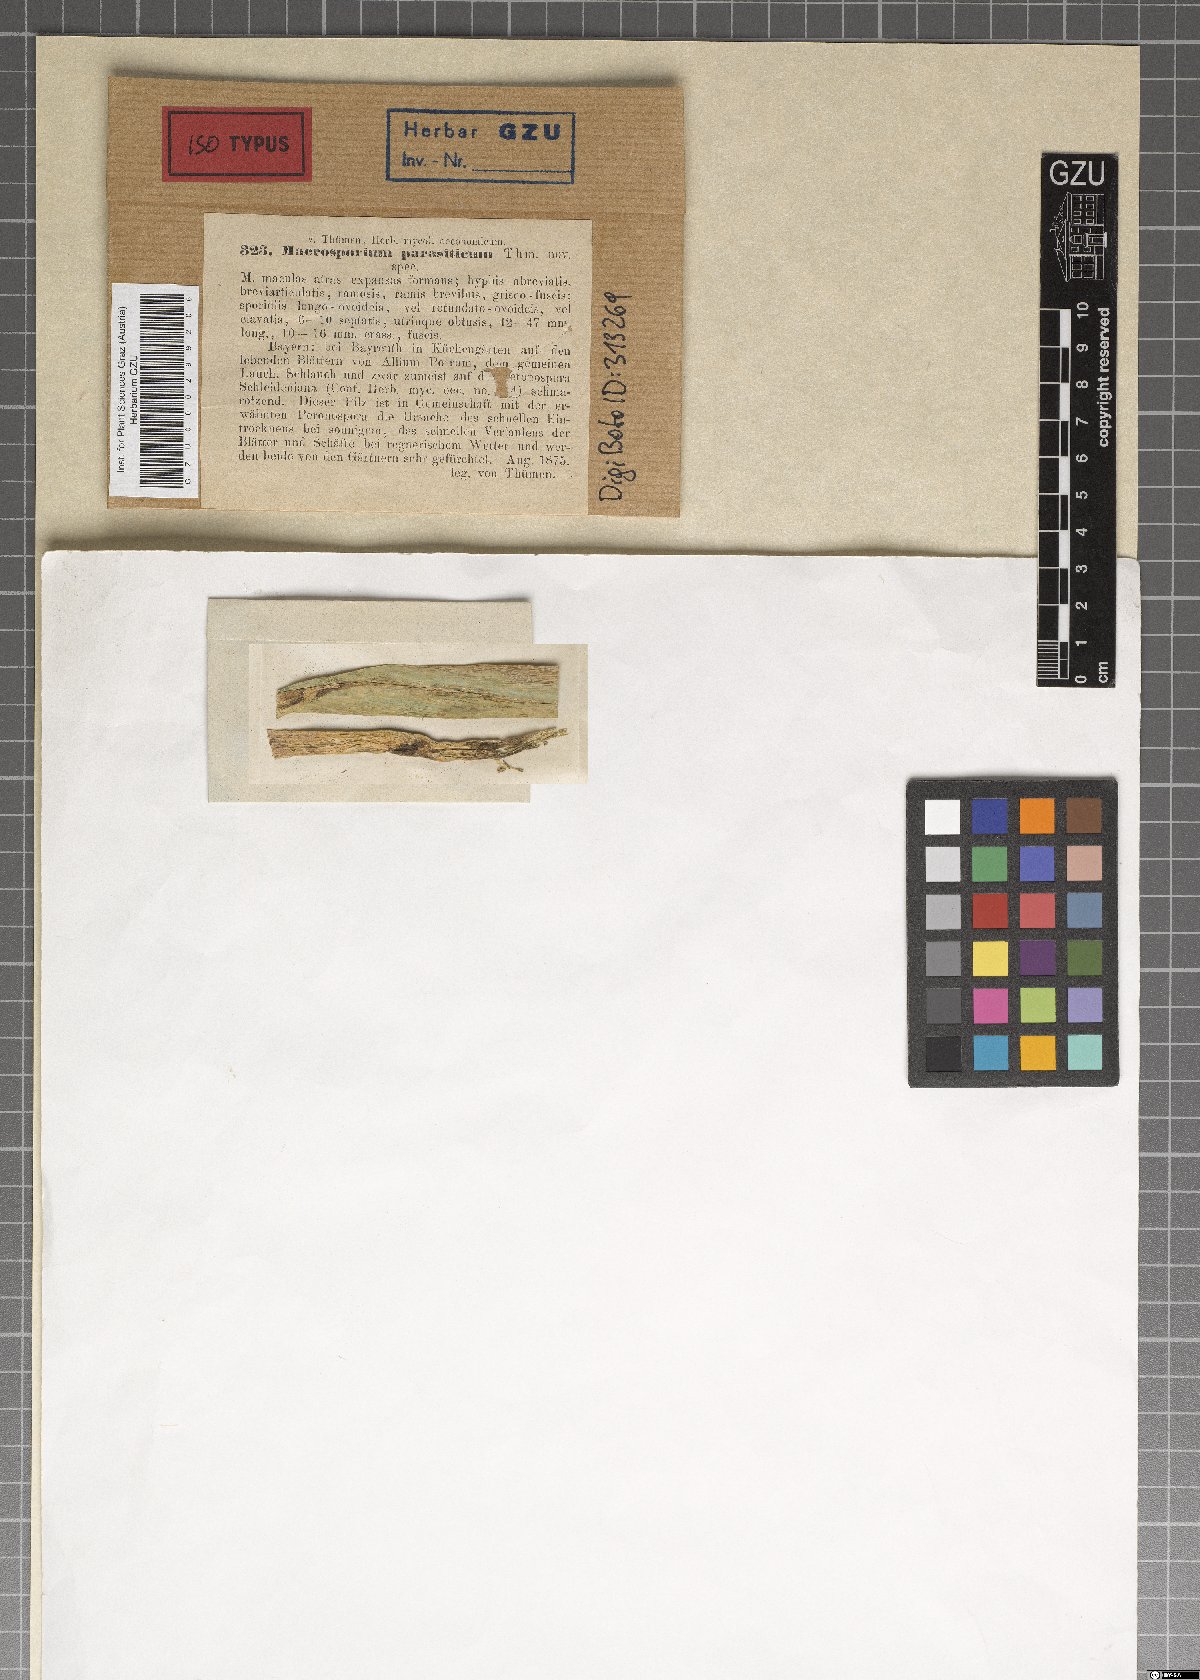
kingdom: Fungi
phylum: Ascomycota
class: Dothideomycetes
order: Pleosporales
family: Pleosporaceae
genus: Stemphylium
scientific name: Stemphylium vesicarium
